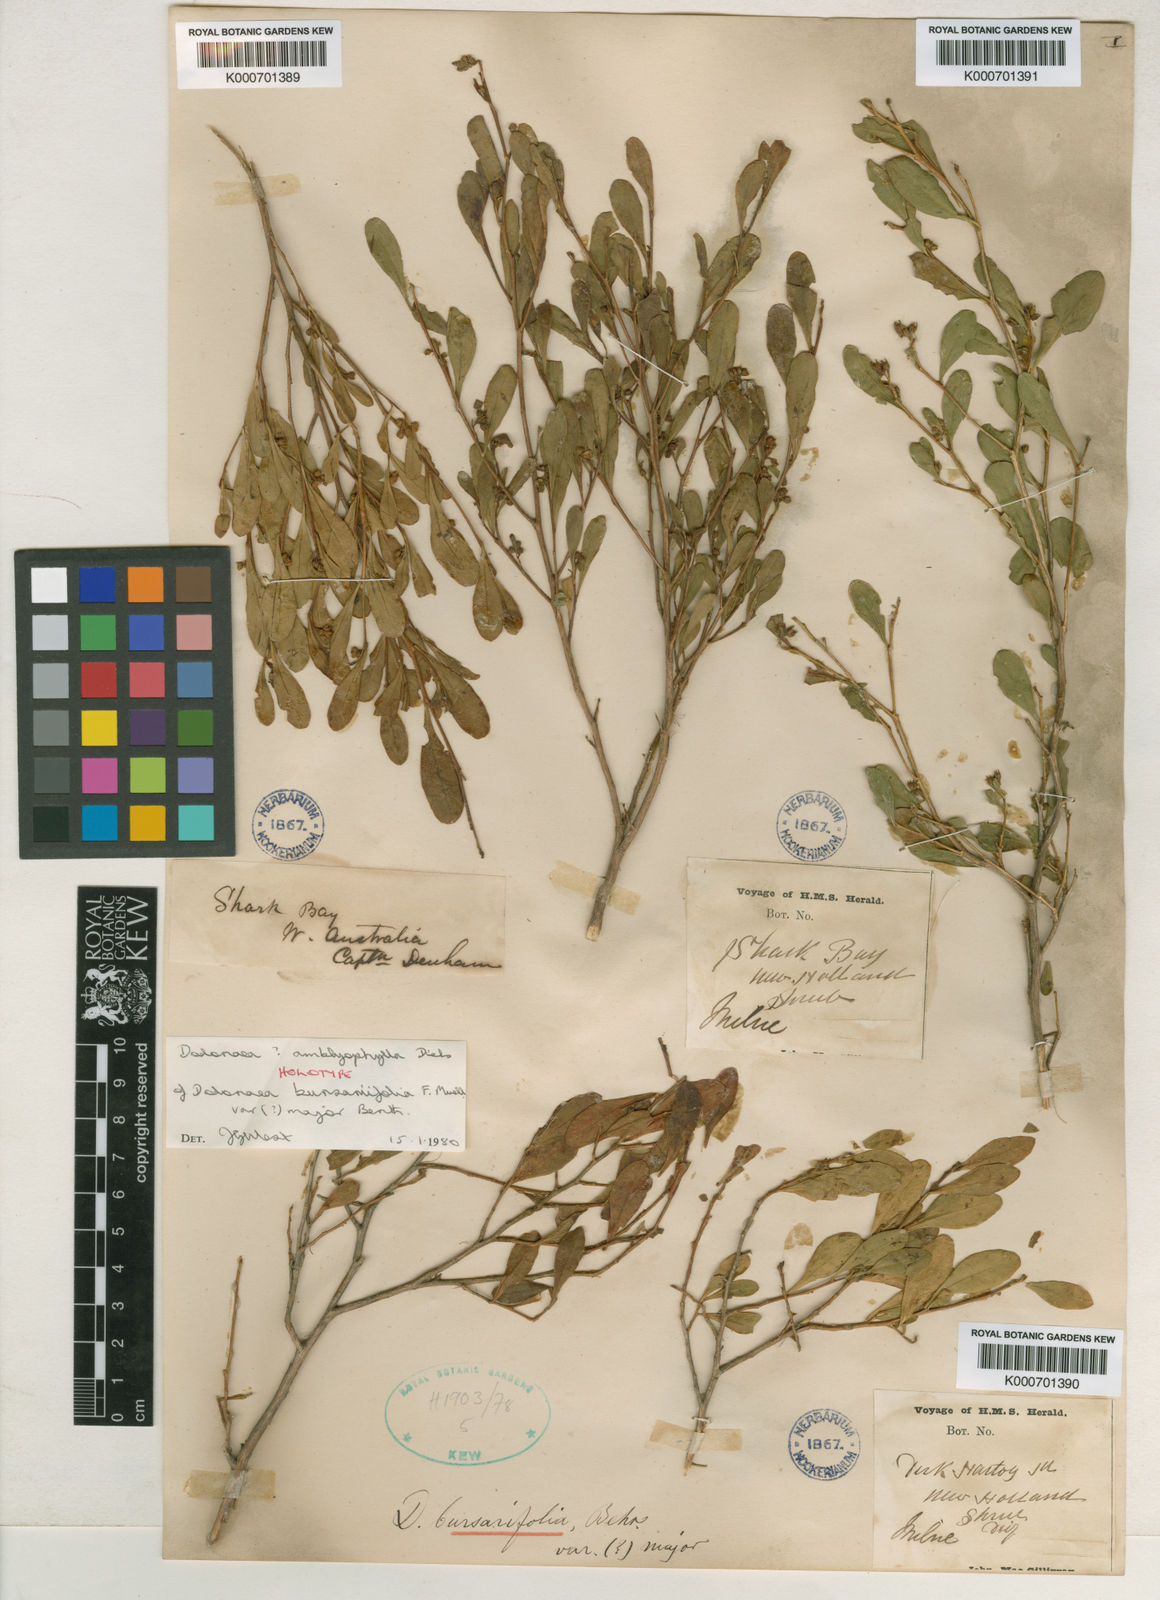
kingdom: Plantae
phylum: Tracheophyta
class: Magnoliopsida
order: Sapindales
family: Sapindaceae
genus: Dodonaea
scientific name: Dodonaea amblyophylla
